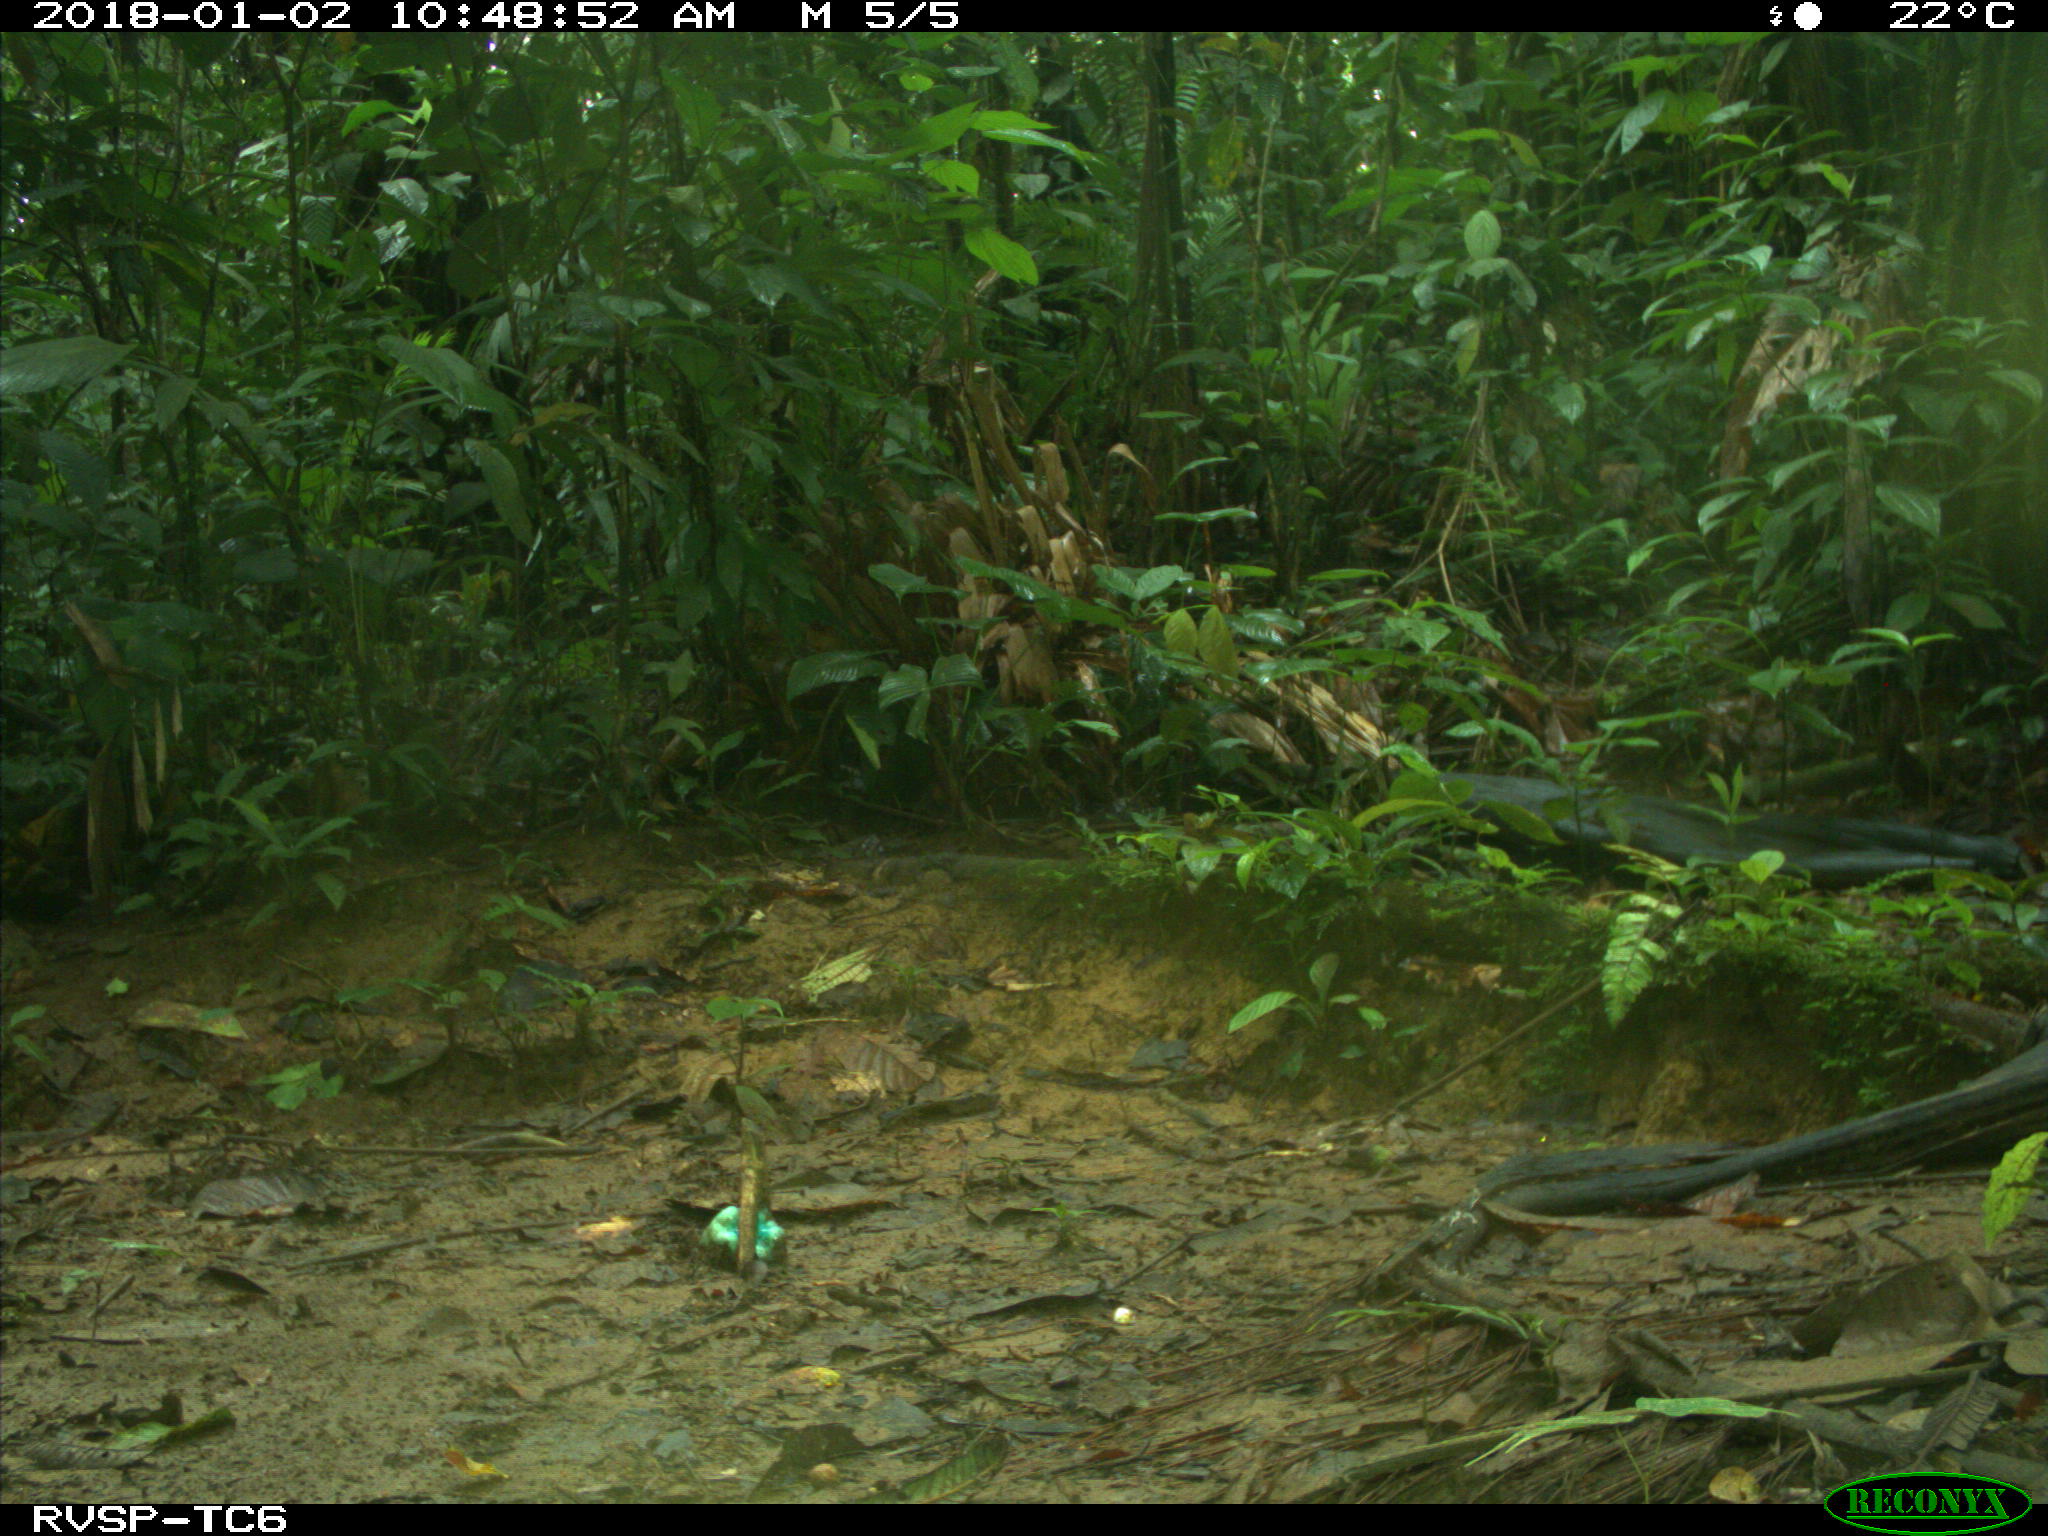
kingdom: Animalia
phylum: Chordata
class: Mammalia
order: Rodentia
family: Sciuridae
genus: Sciurus
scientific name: Sciurus granatensis
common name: Red-tailed squirrel
